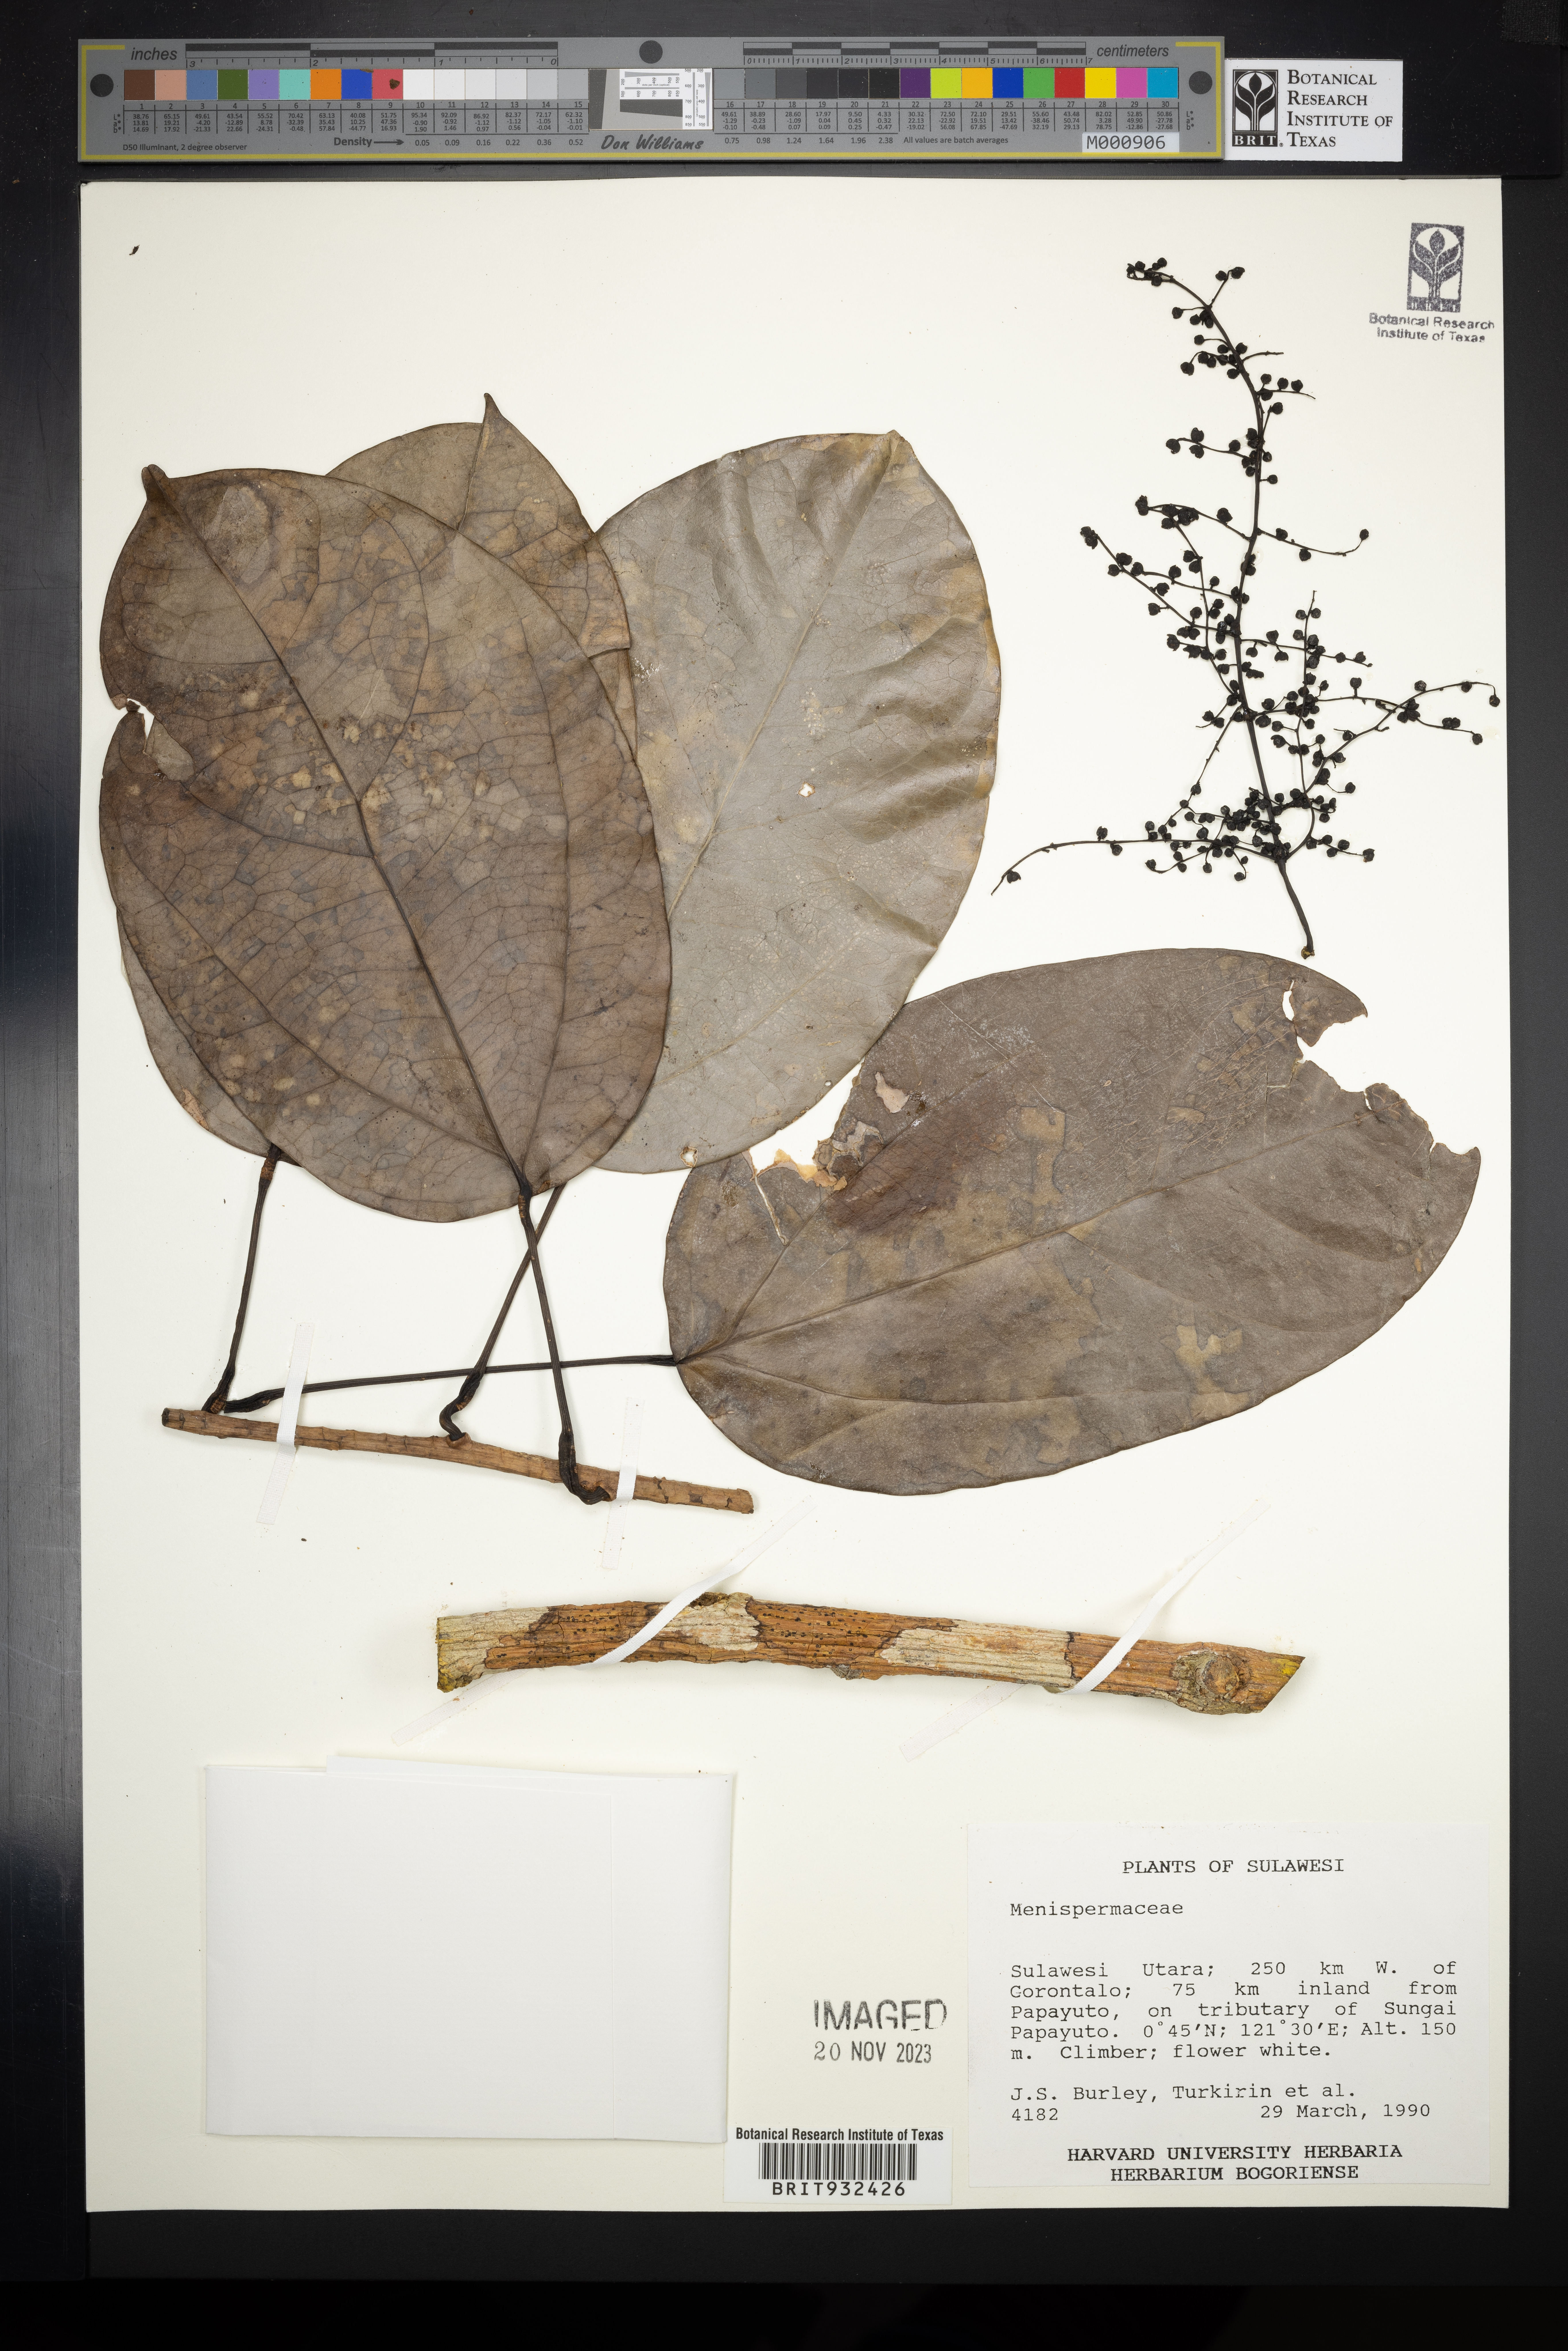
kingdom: Plantae
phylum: Tracheophyta
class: Magnoliopsida
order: Ranunculales
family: Menispermaceae
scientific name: Menispermaceae
